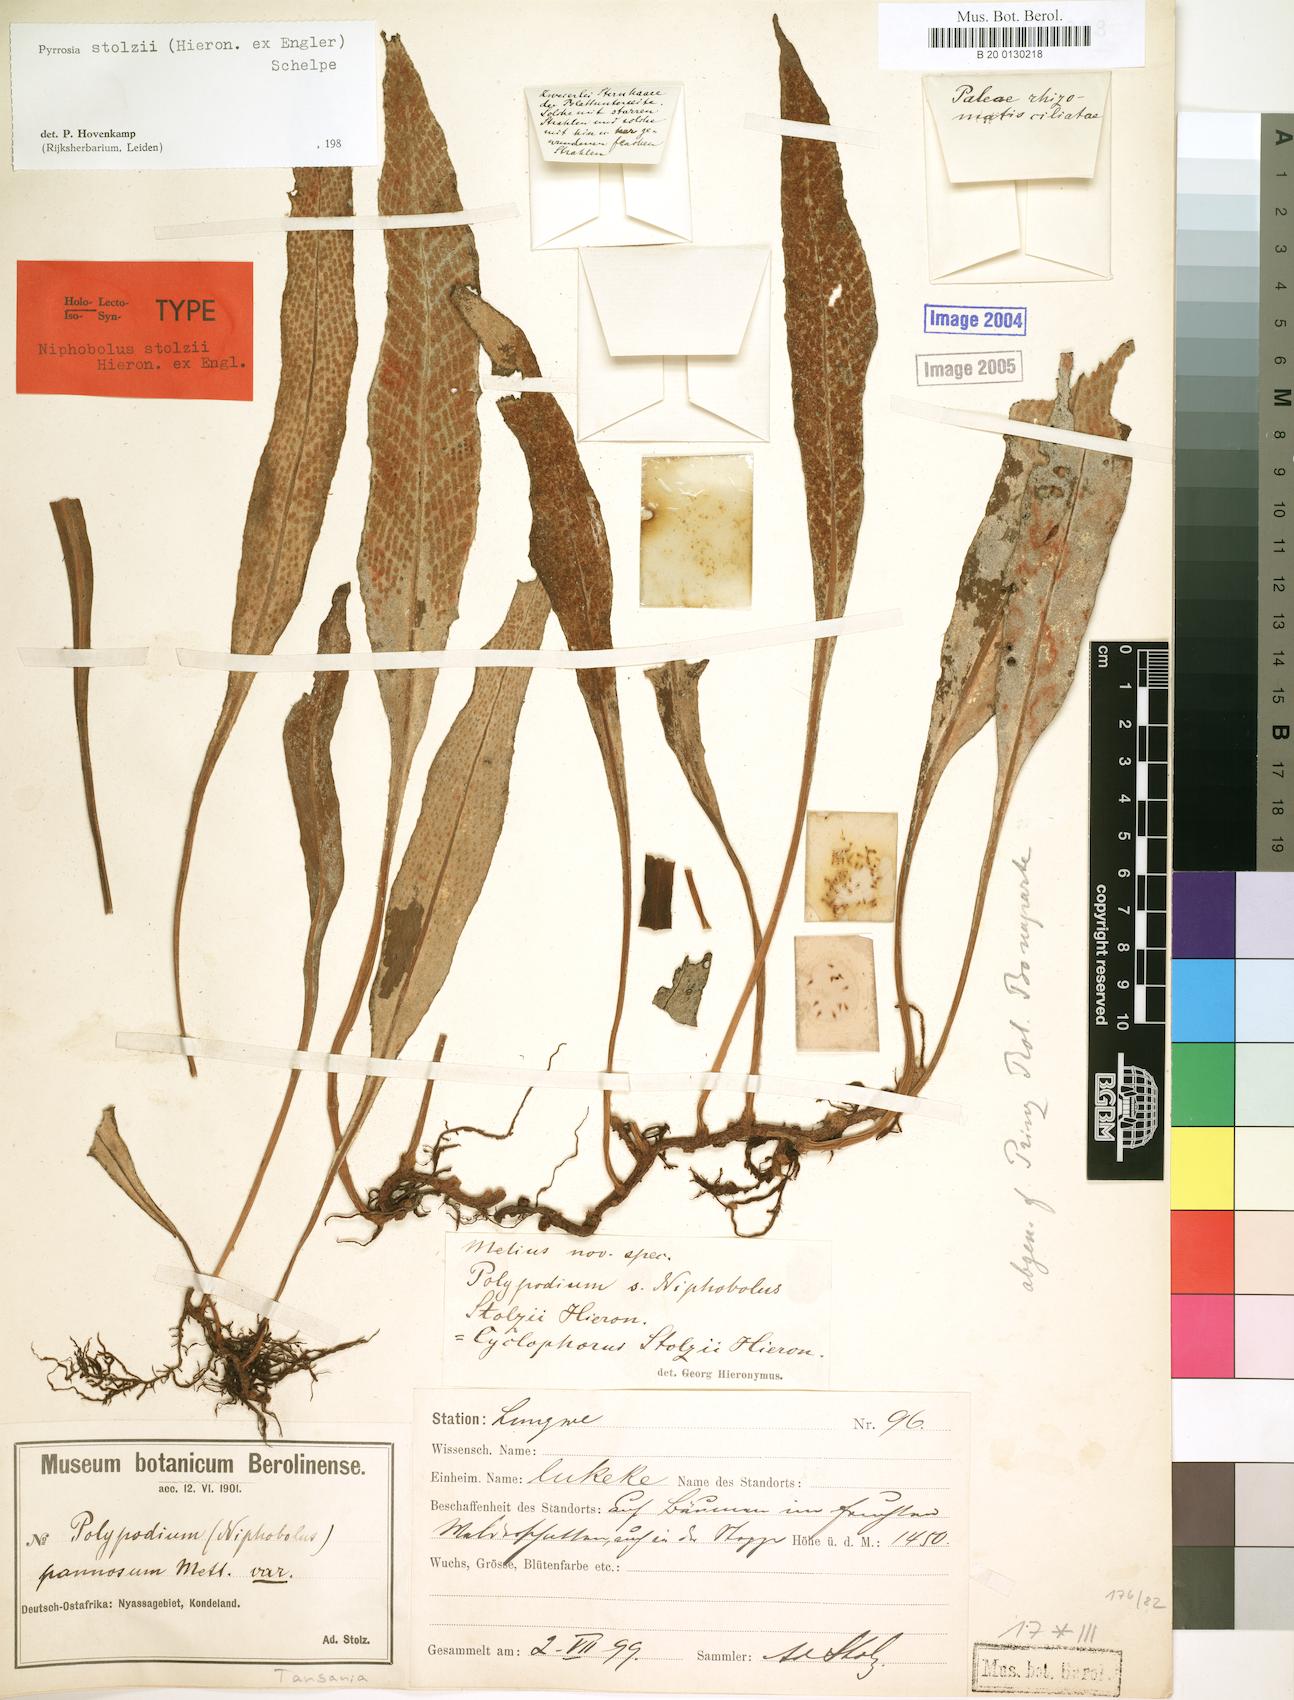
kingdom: Plantae
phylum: Tracheophyta
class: Polypodiopsida
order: Polypodiales
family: Polypodiaceae
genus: Pyrrosia
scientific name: Pyrrosia stolzii
